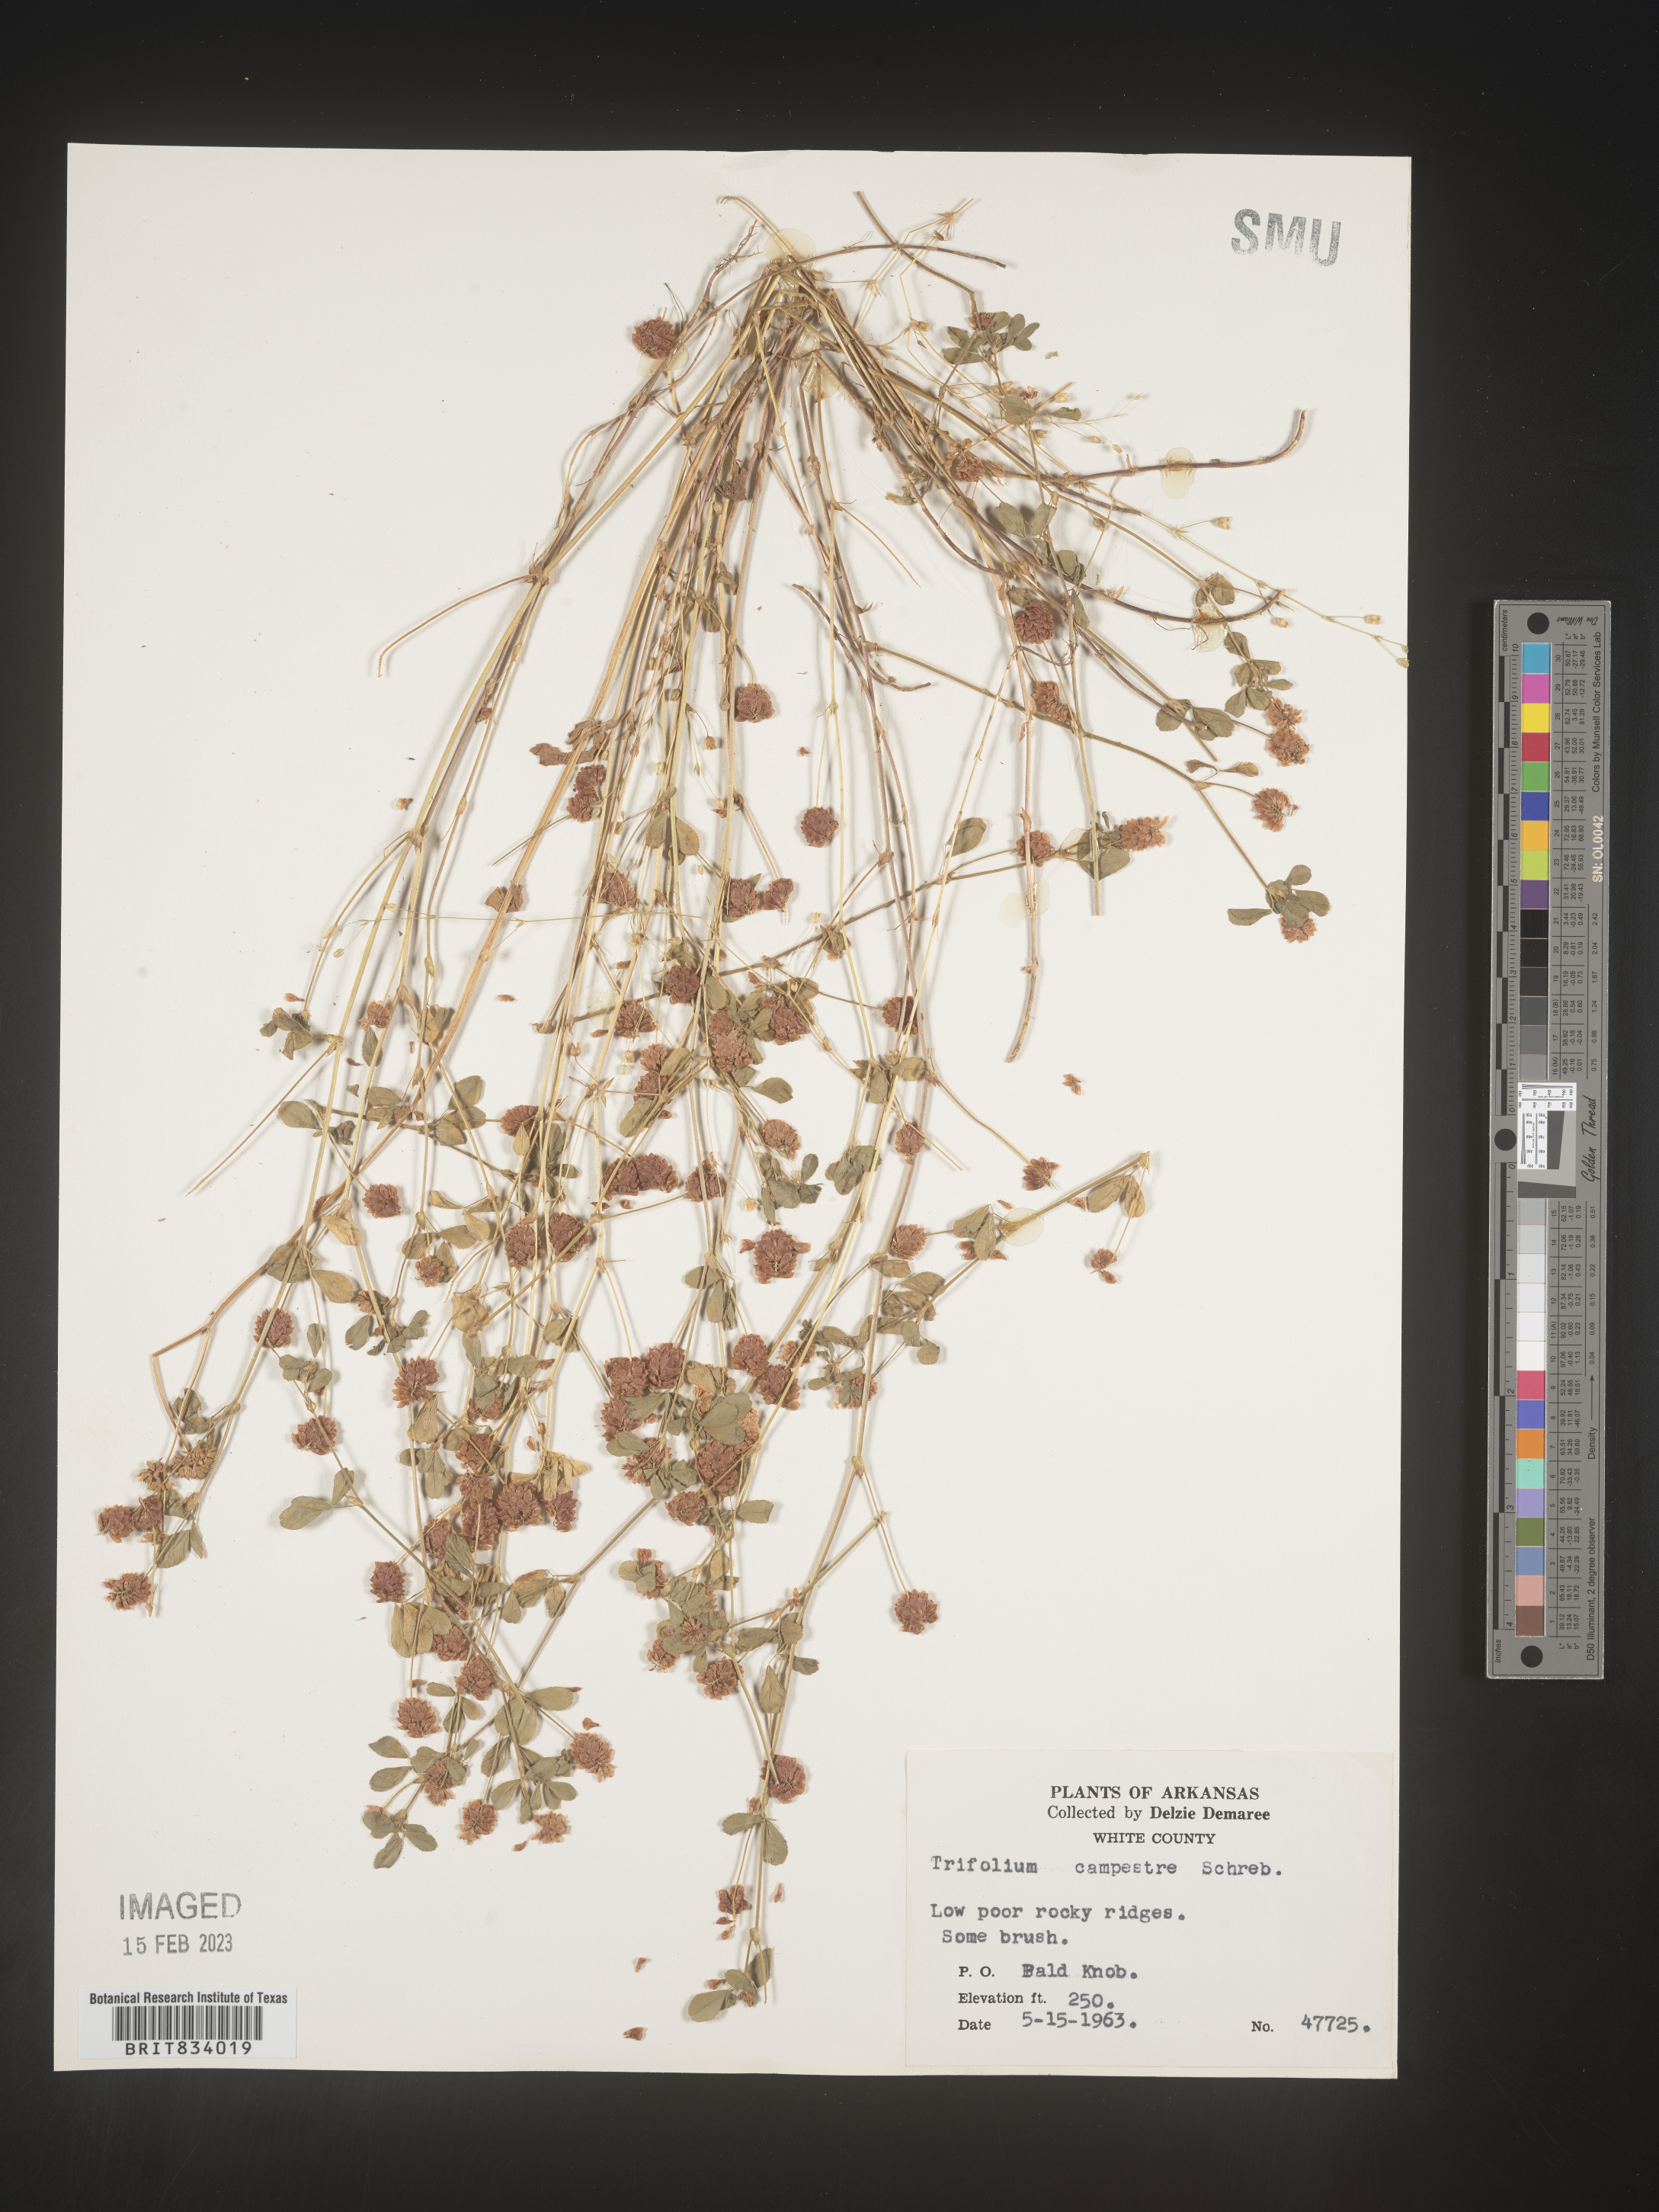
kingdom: Plantae
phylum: Tracheophyta
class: Magnoliopsida
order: Fabales
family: Fabaceae
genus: Trifolium
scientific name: Trifolium campestre
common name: Field clover
